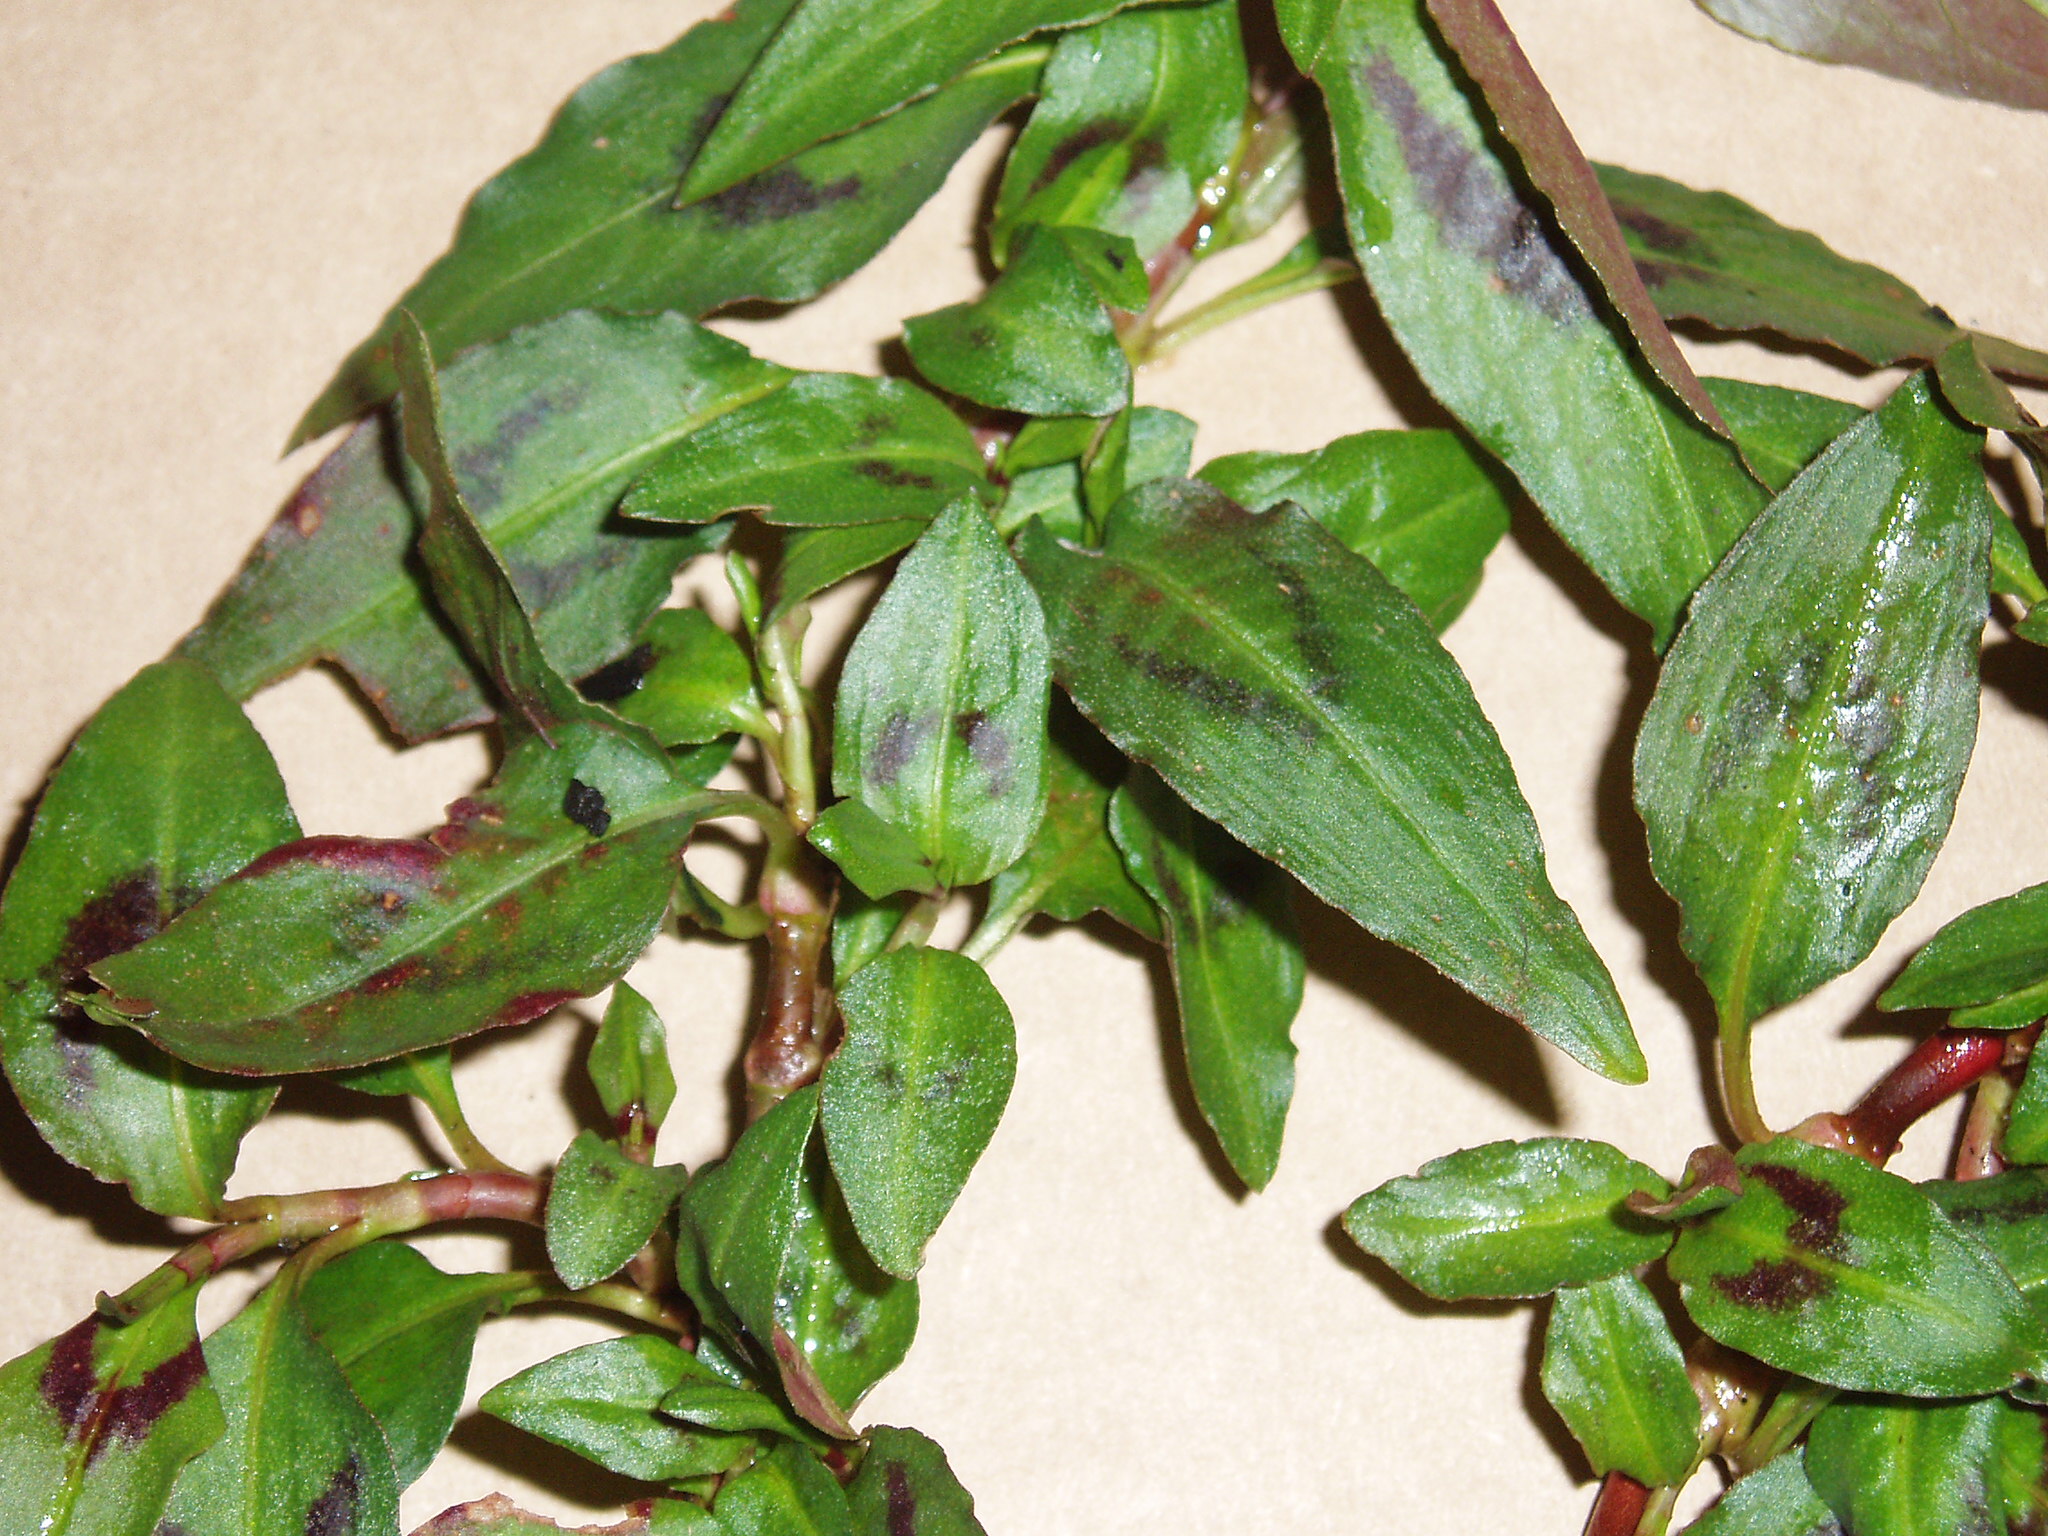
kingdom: Plantae
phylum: Tracheophyta
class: Magnoliopsida
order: Caryophyllales
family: Polygonaceae
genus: Persicaria
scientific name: Persicaria odorata
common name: Vietnamese-coriander
